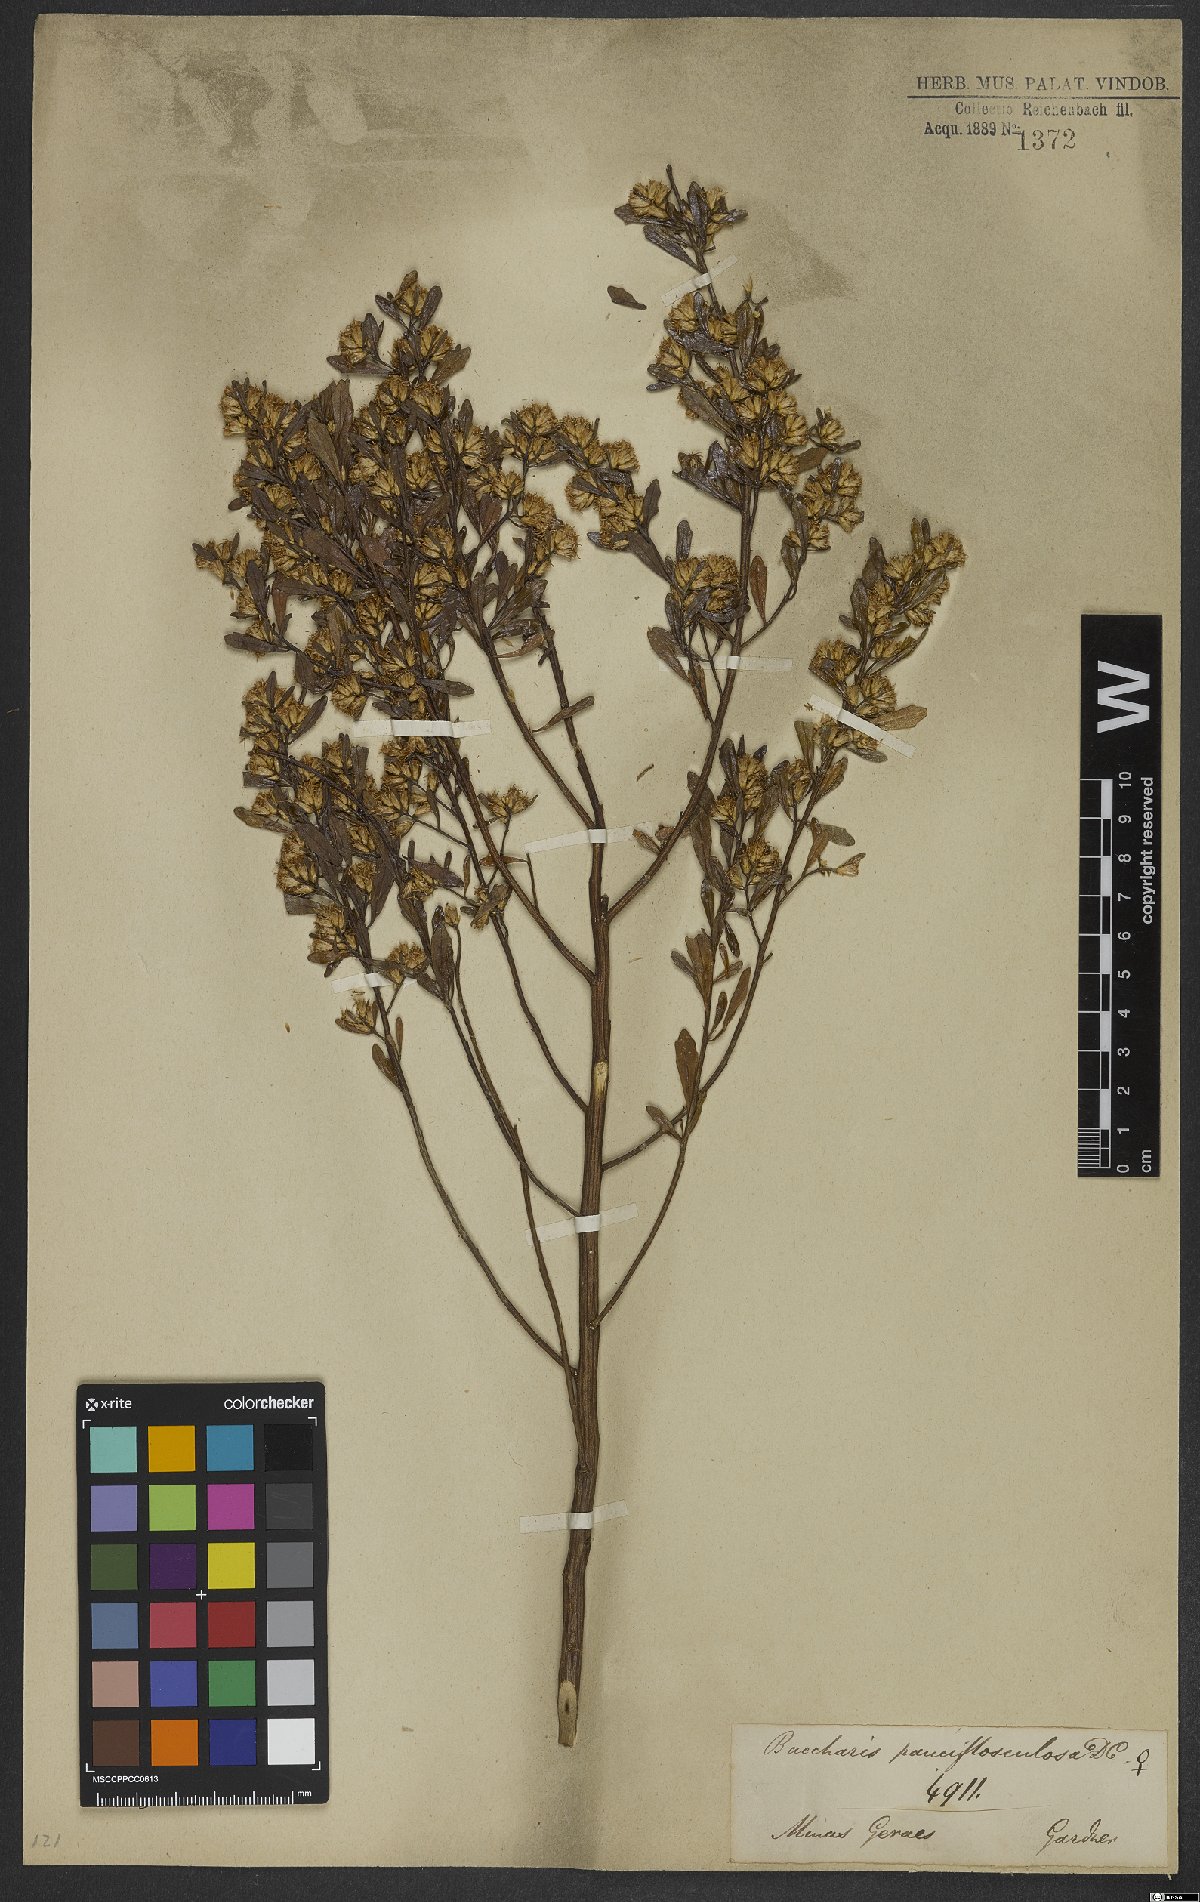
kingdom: Plantae
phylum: Tracheophyta
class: Magnoliopsida
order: Asterales
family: Asteraceae
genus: Baccharis
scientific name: Baccharis pauciflosculosa
